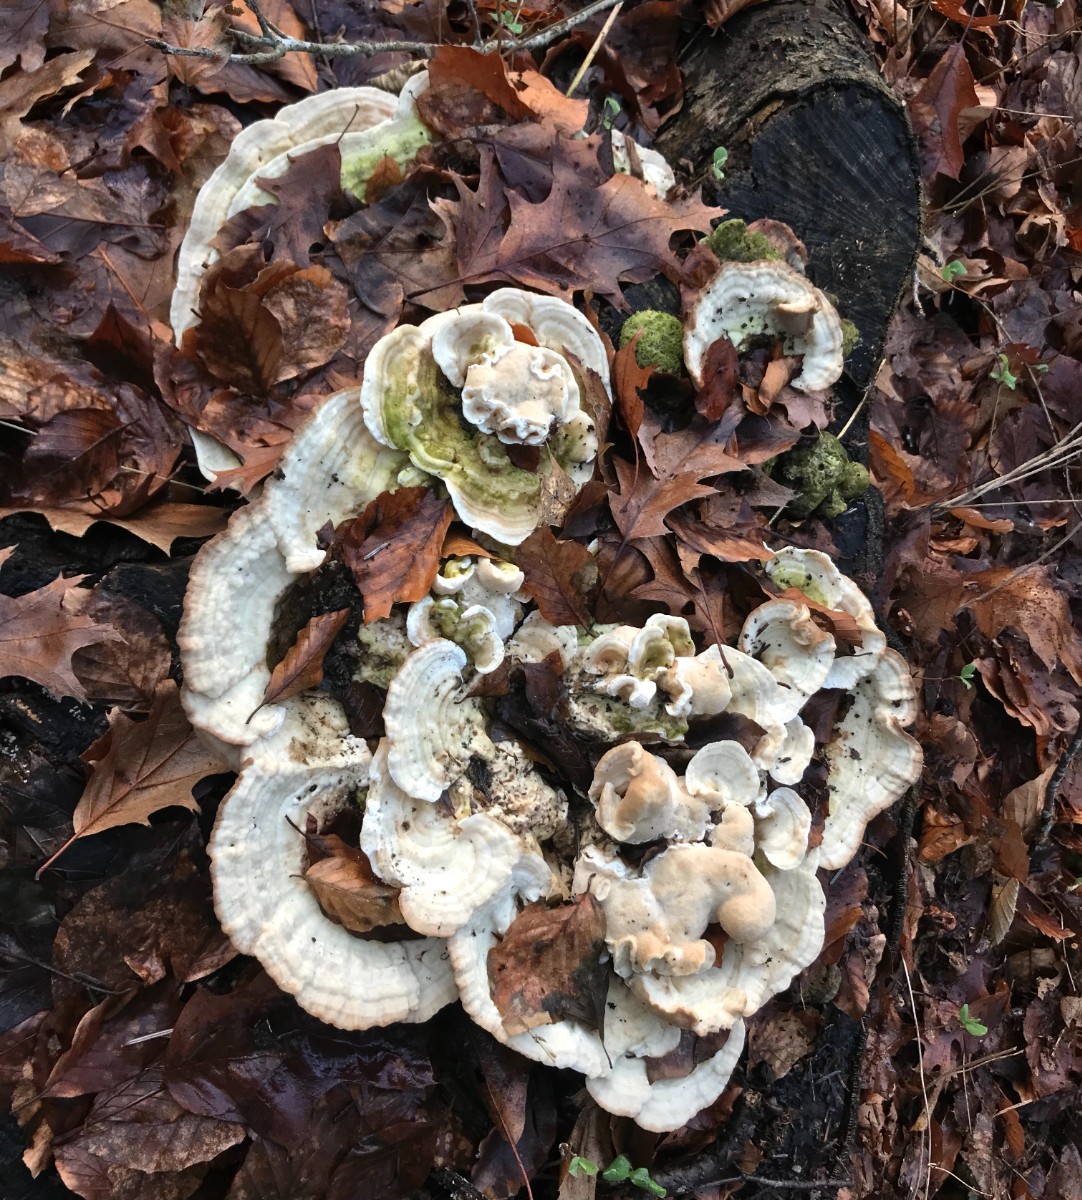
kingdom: Fungi
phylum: Basidiomycota
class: Agaricomycetes
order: Polyporales
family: Polyporaceae
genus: Trametes
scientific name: Trametes gibbosa
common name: puklet læderporesvamp
